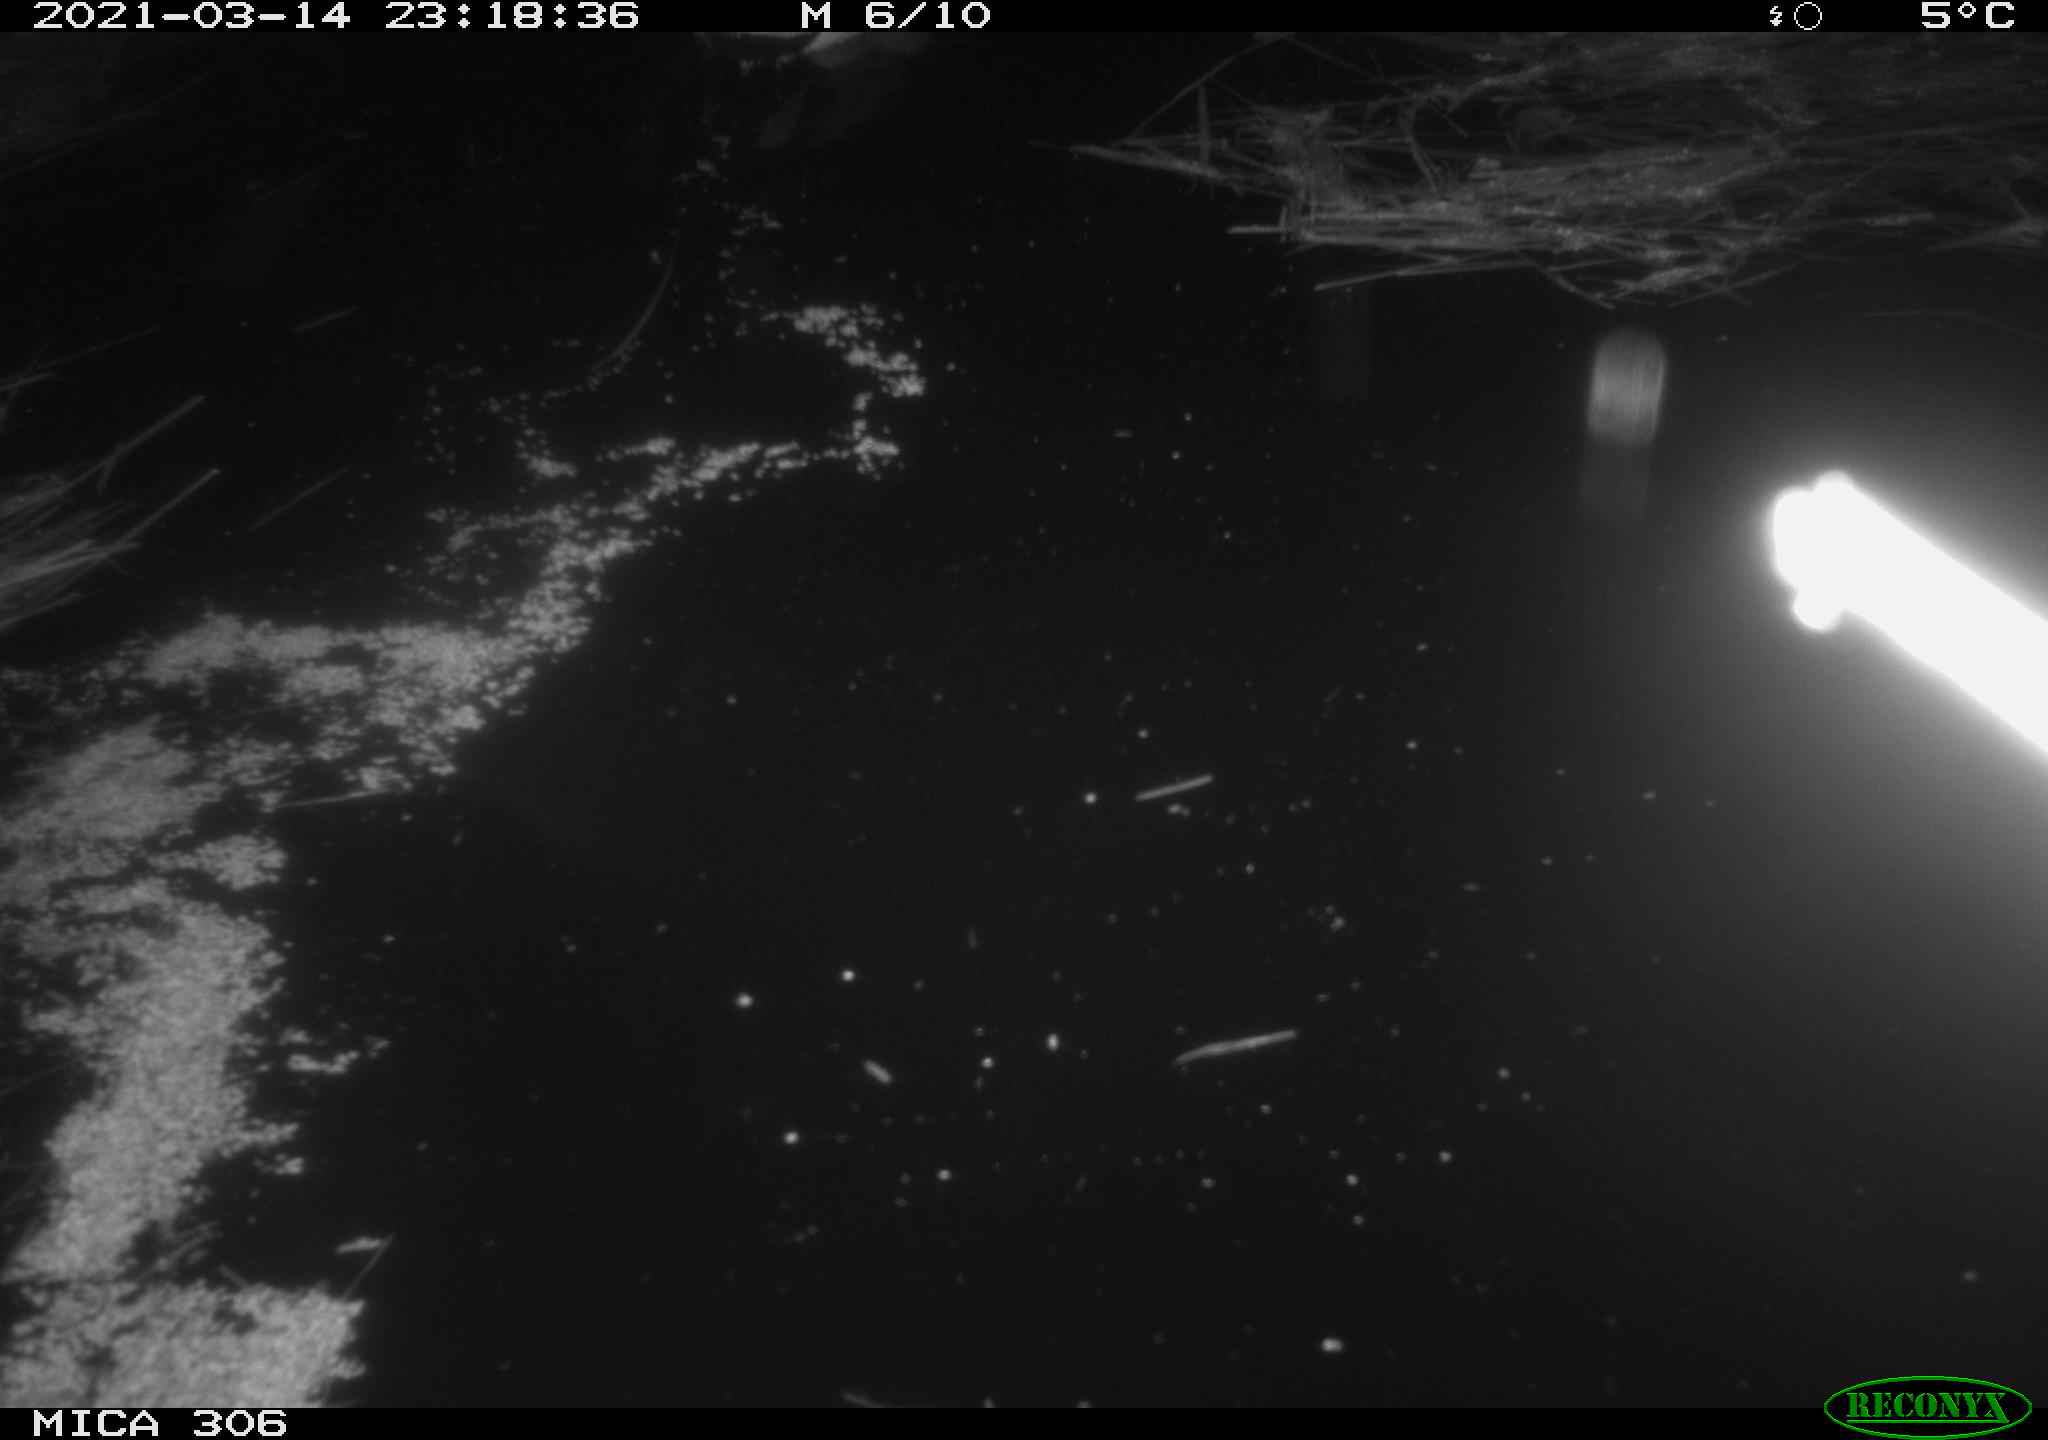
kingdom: Animalia
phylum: Chordata
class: Aves
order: Anseriformes
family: Anatidae
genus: Anas
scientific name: Anas platyrhynchos
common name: Mallard
